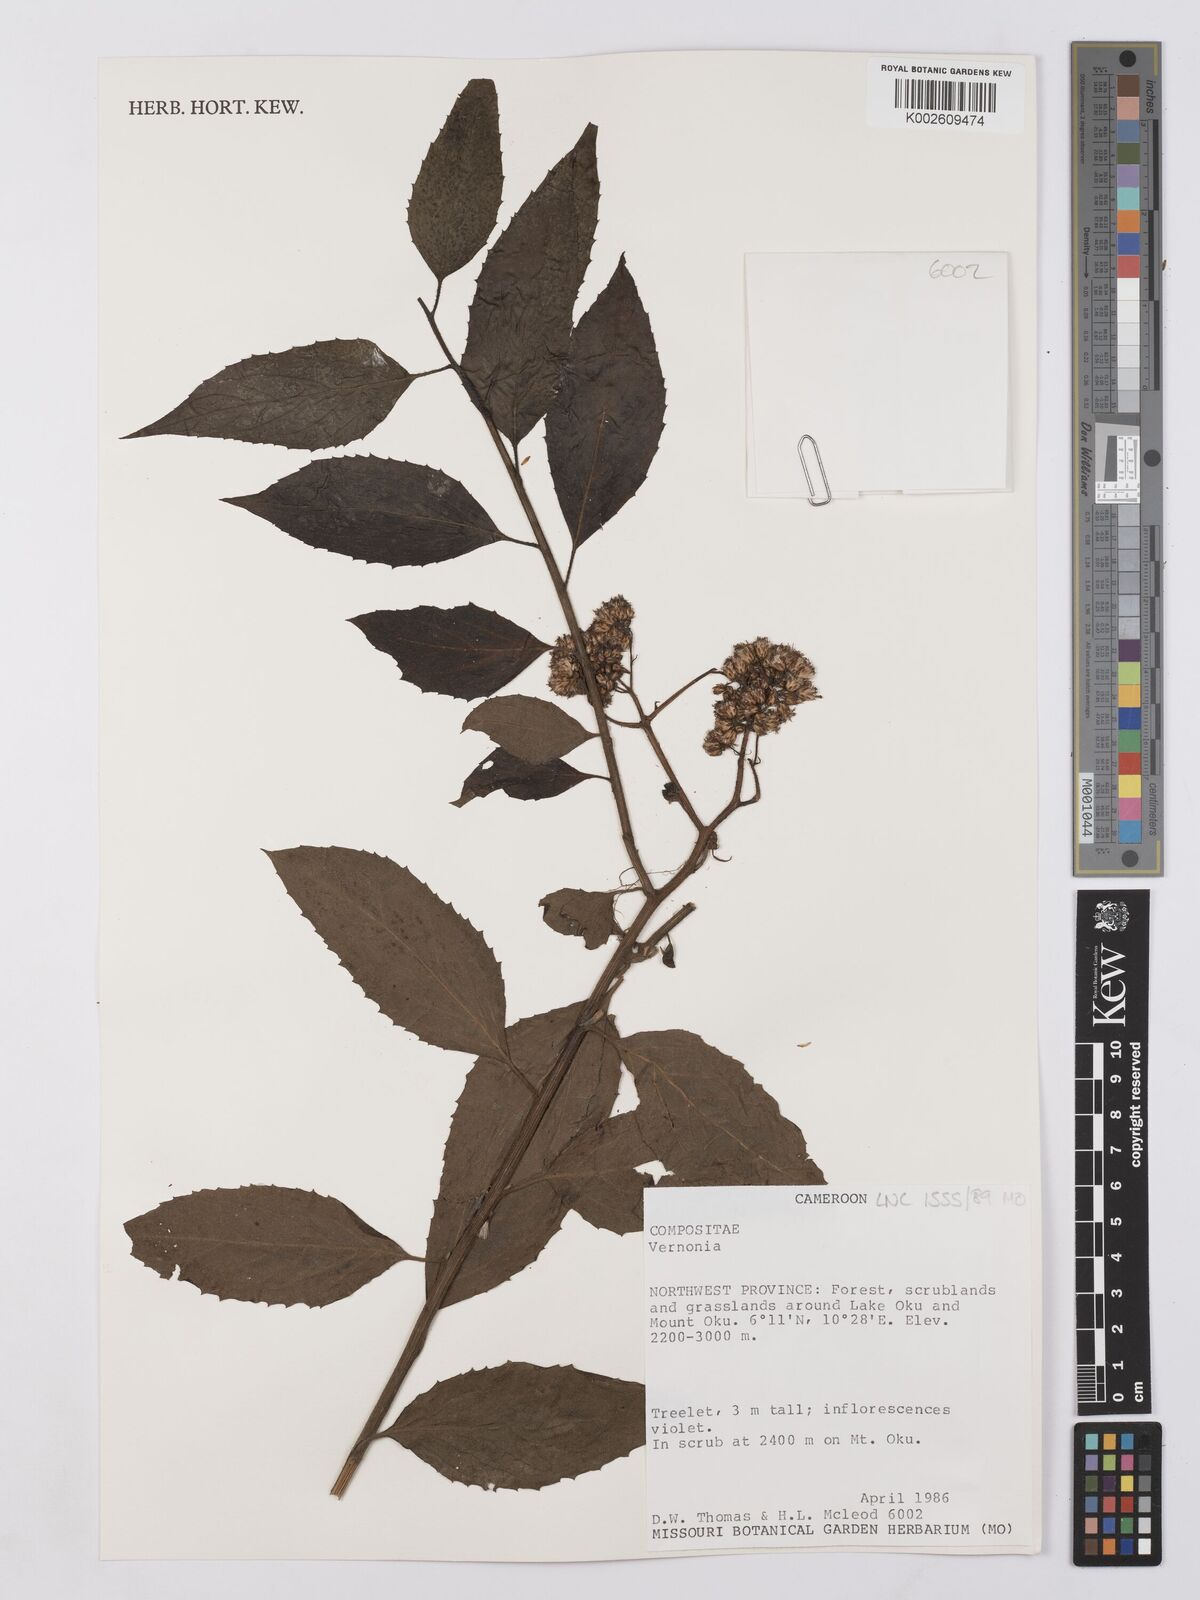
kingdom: Plantae
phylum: Tracheophyta
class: Magnoliopsida
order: Asterales
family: Asteraceae
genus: Vernonia
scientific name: Vernonia
